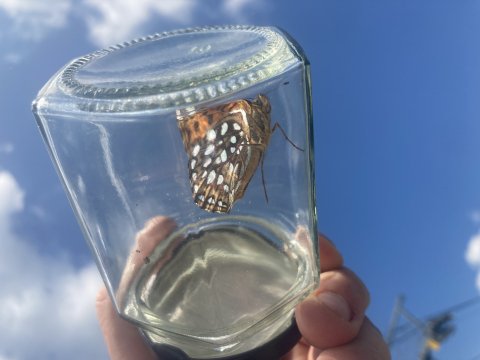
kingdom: Animalia
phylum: Arthropoda
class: Insecta
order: Lepidoptera
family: Nymphalidae
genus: Speyeria
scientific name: Speyeria atlantis
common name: Atlantis Fritillary
